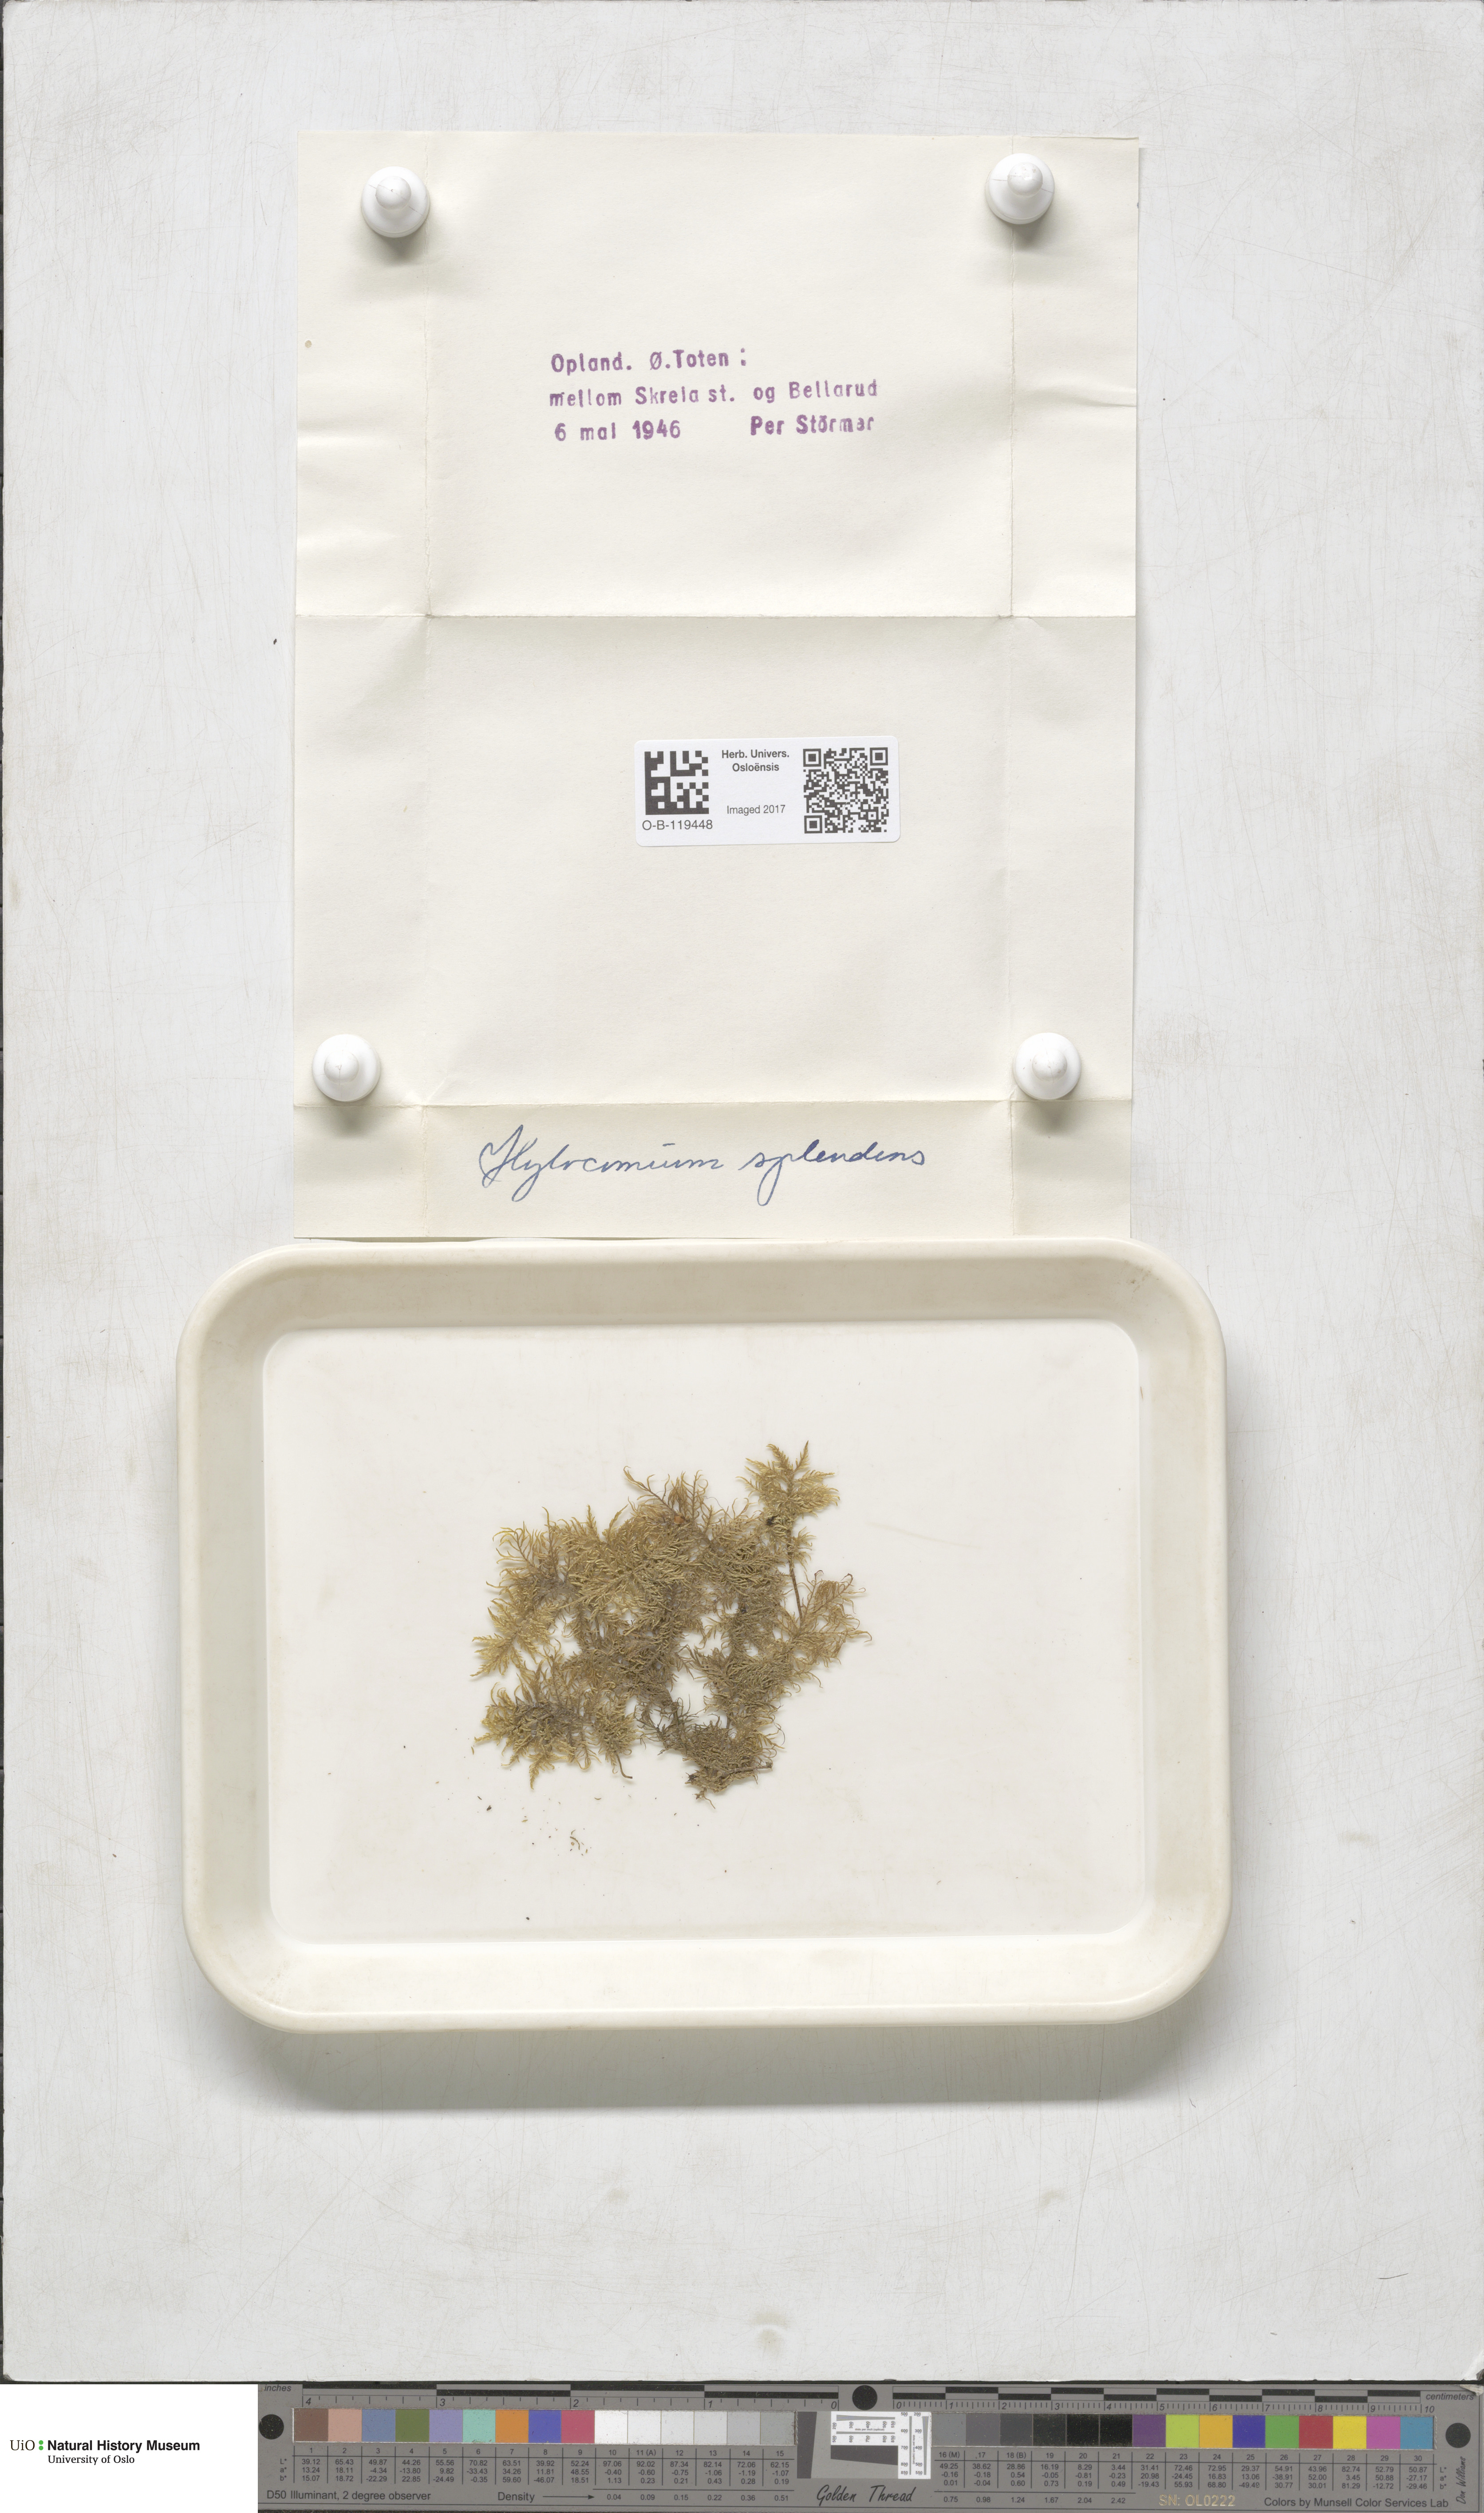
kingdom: Plantae
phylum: Bryophyta
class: Bryopsida
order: Hypnales
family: Hylocomiaceae
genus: Hylocomium
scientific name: Hylocomium splendens
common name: Stairstep moss
